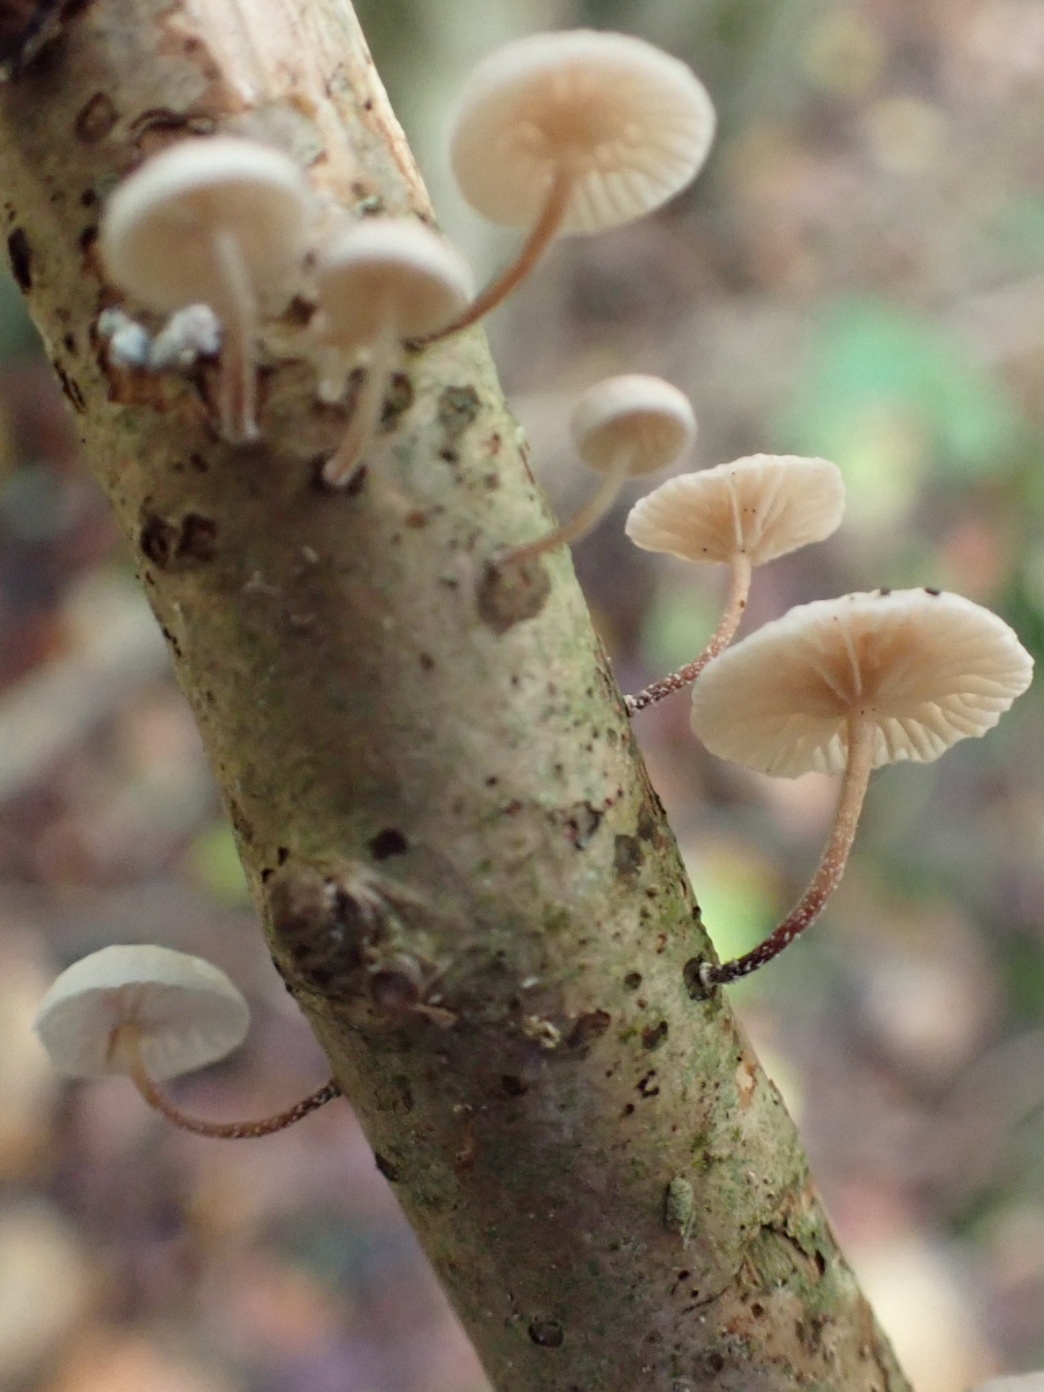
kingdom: Fungi
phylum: Basidiomycota
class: Agaricomycetes
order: Agaricales
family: Omphalotaceae
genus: Collybiopsis
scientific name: Collybiopsis ramealis
